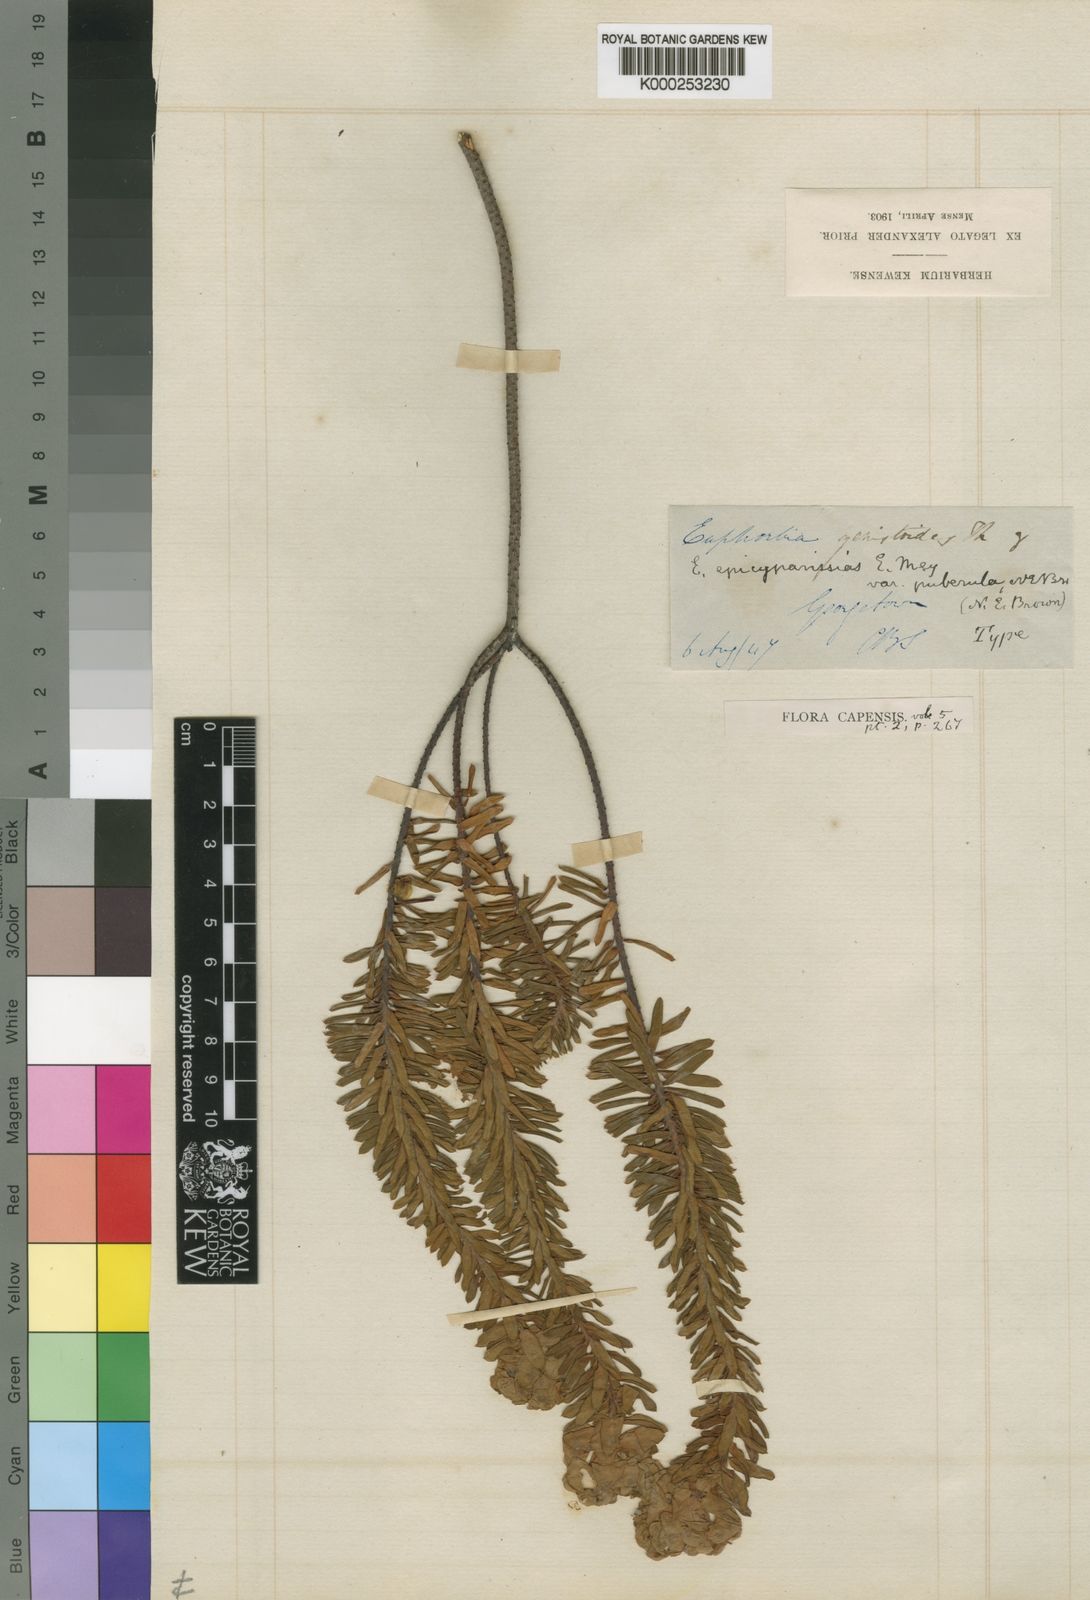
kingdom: Plantae
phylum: Tracheophyta
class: Magnoliopsida
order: Malpighiales
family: Euphorbiaceae
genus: Euphorbia
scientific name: Euphorbia
